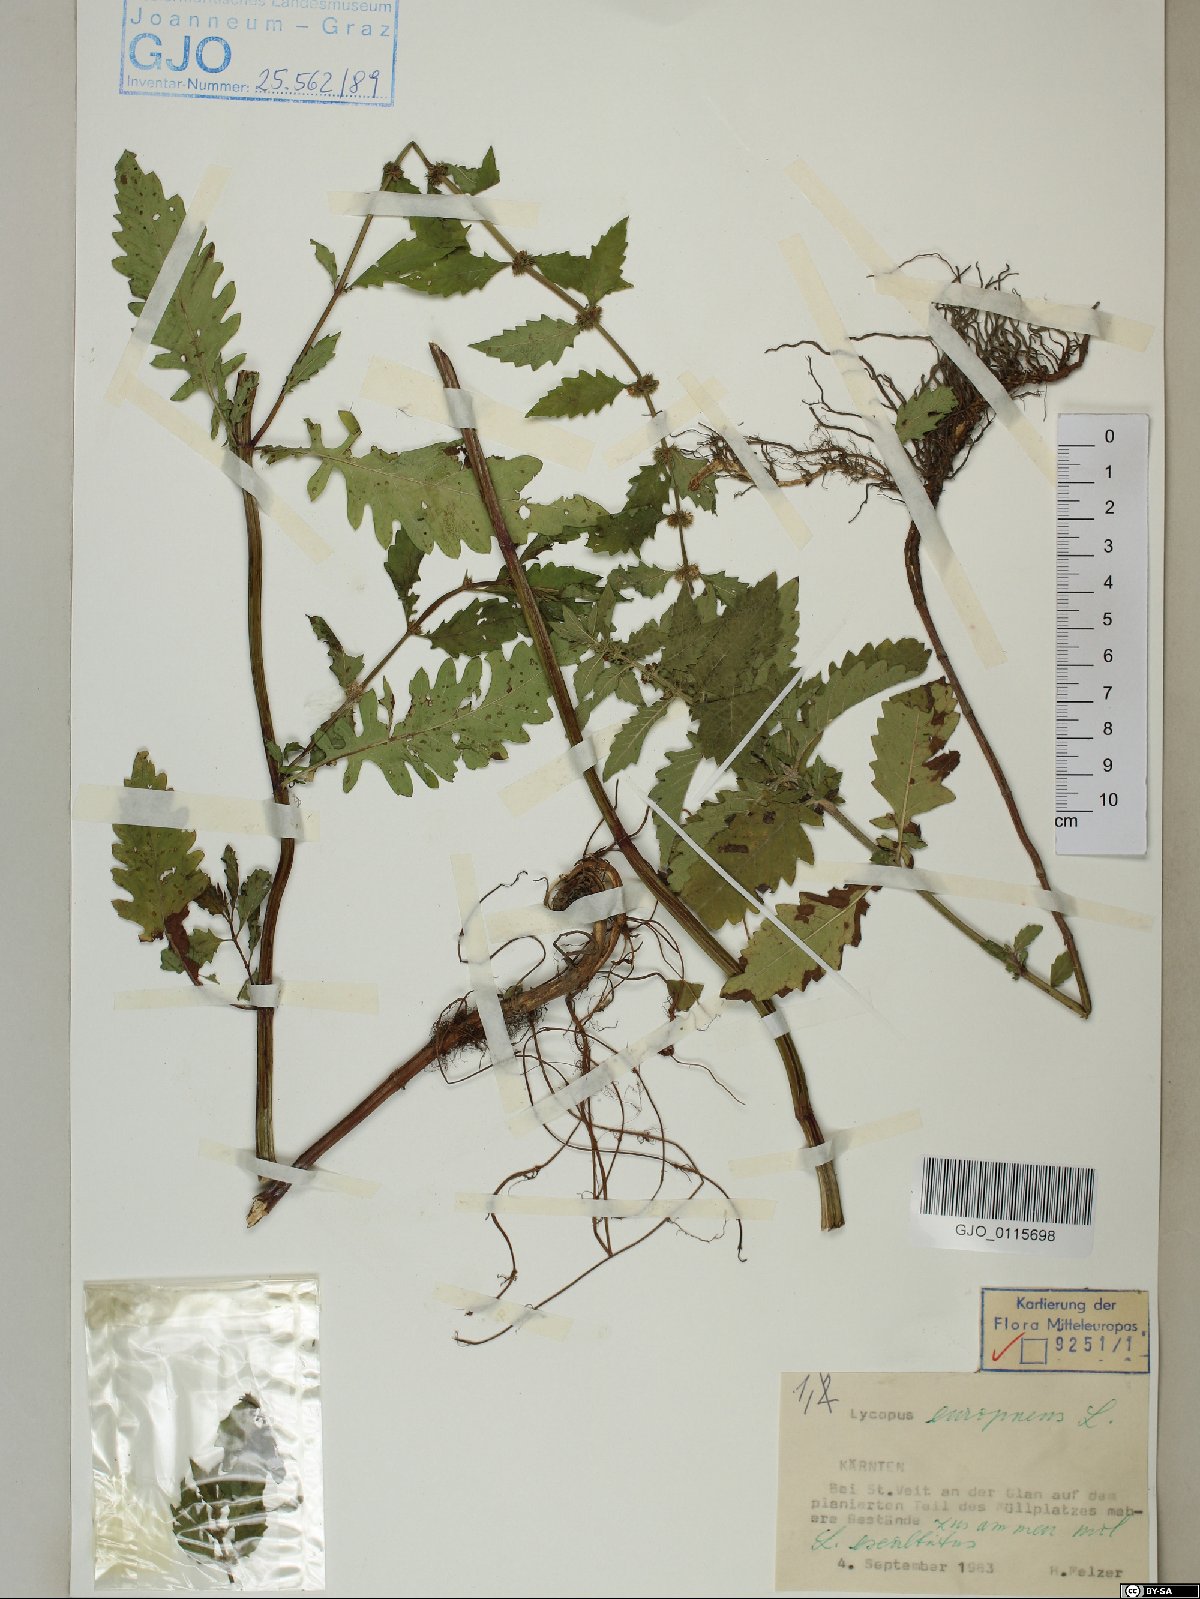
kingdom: Plantae
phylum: Tracheophyta
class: Magnoliopsida
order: Lamiales
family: Lamiaceae
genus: Lycopus
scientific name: Lycopus europaeus
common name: European bugleweed
